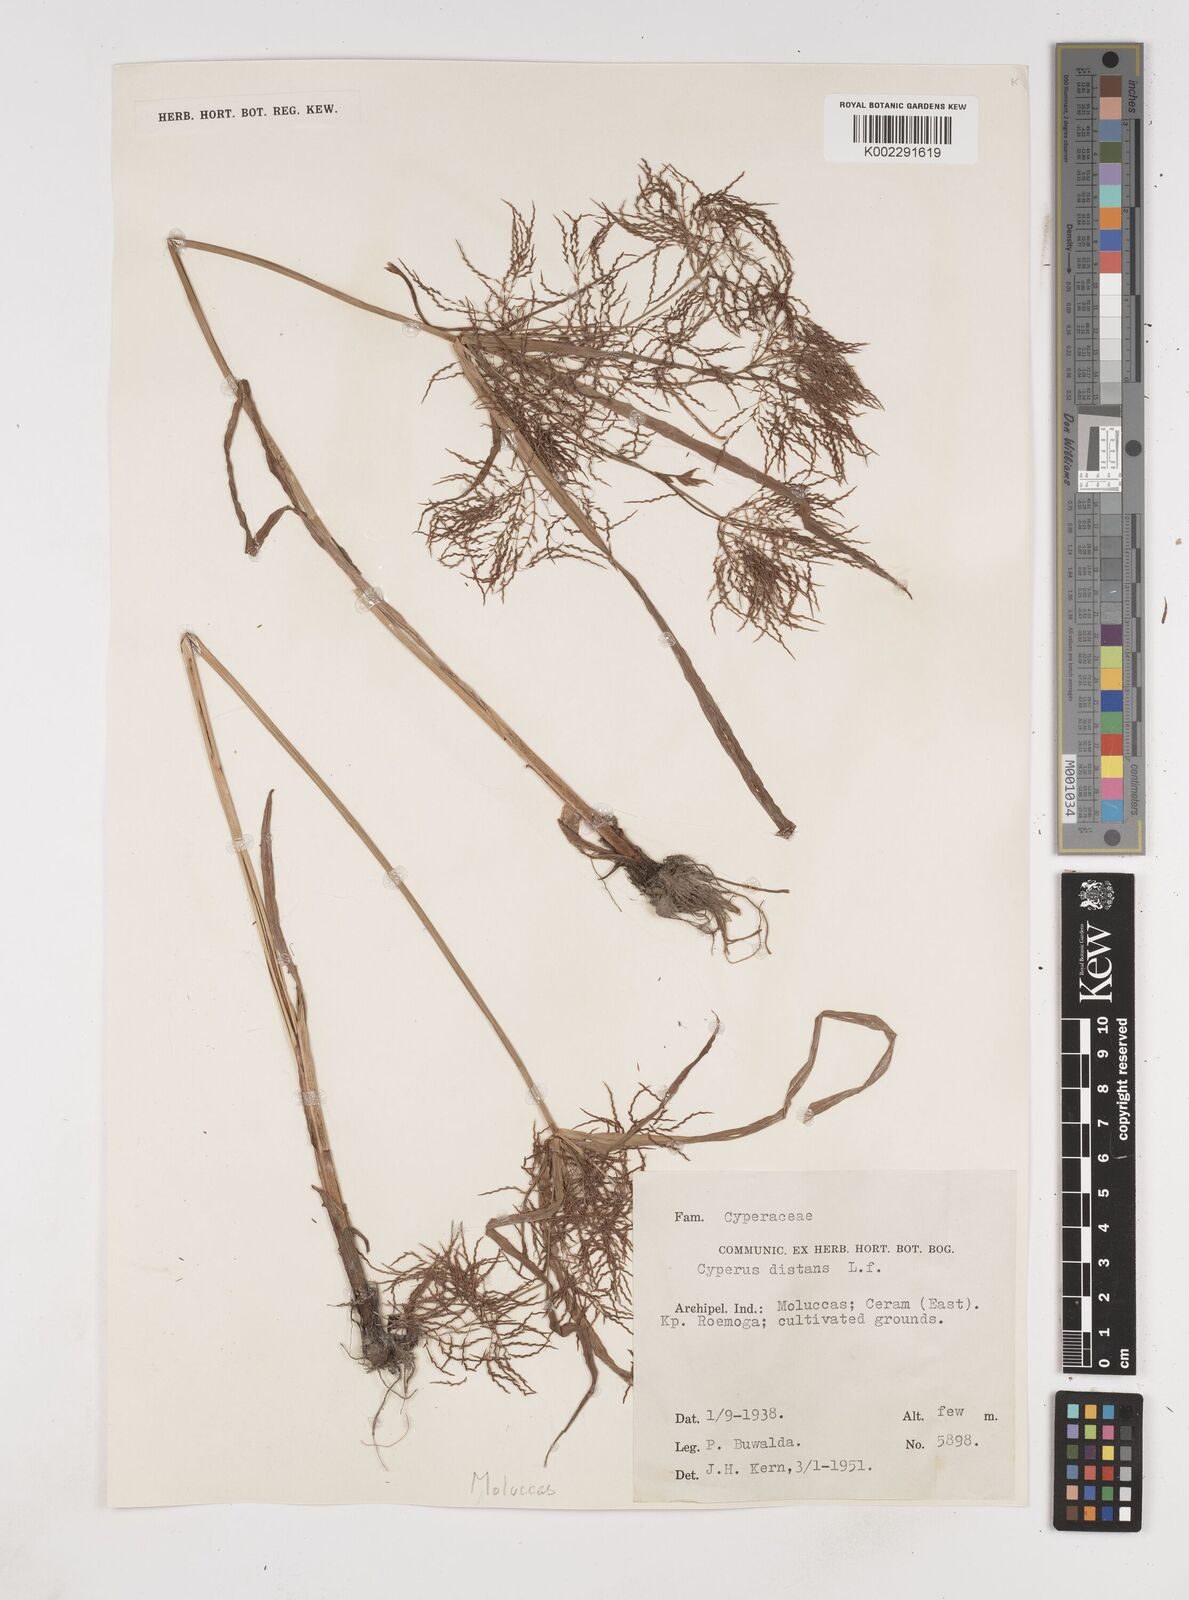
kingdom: Plantae
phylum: Tracheophyta
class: Liliopsida
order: Poales
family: Cyperaceae
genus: Cyperus
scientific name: Cyperus distans
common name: Slender cyperus
